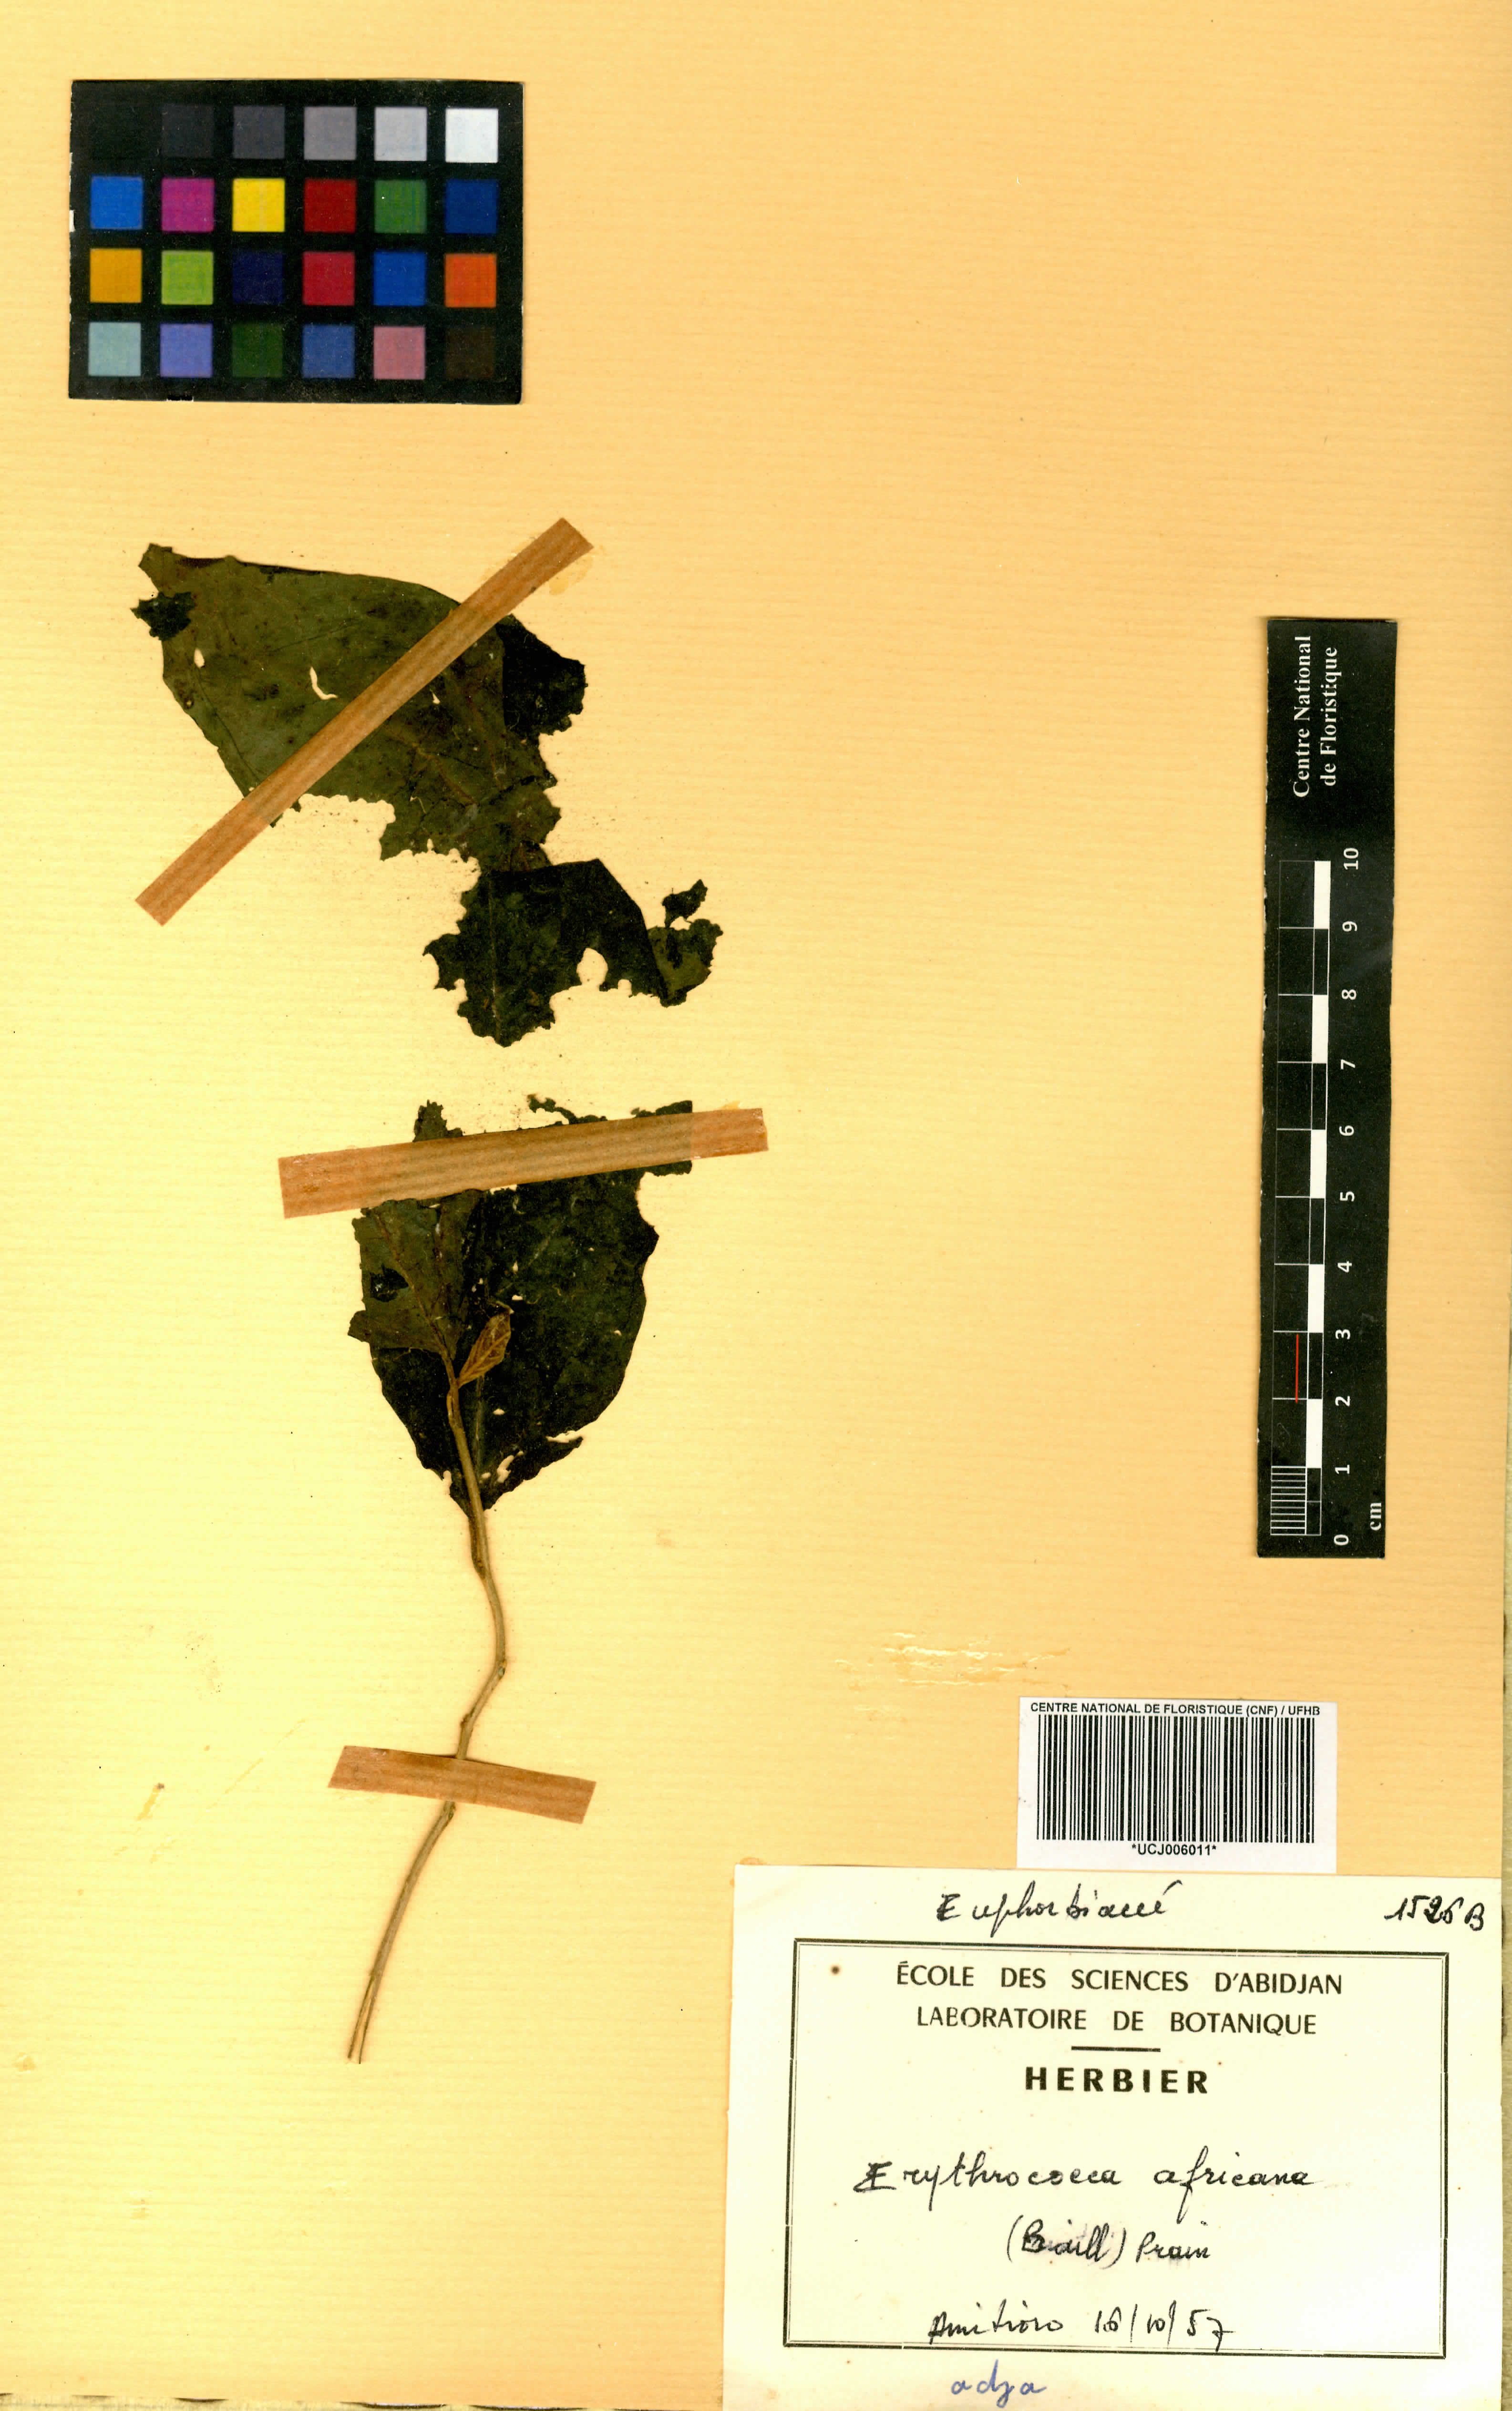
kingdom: Plantae
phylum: Tracheophyta
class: Magnoliopsida
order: Malpighiales
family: Euphorbiaceae
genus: Erythrococca
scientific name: Erythrococca africana
